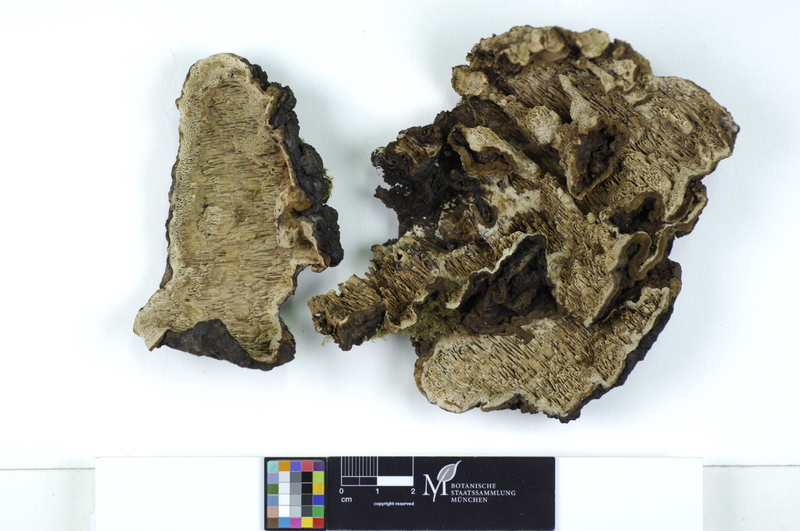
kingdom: Fungi
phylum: Basidiomycota
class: Agaricomycetes
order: Polyporales
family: Polyporaceae
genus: Podofomes
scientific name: Podofomes mollis
